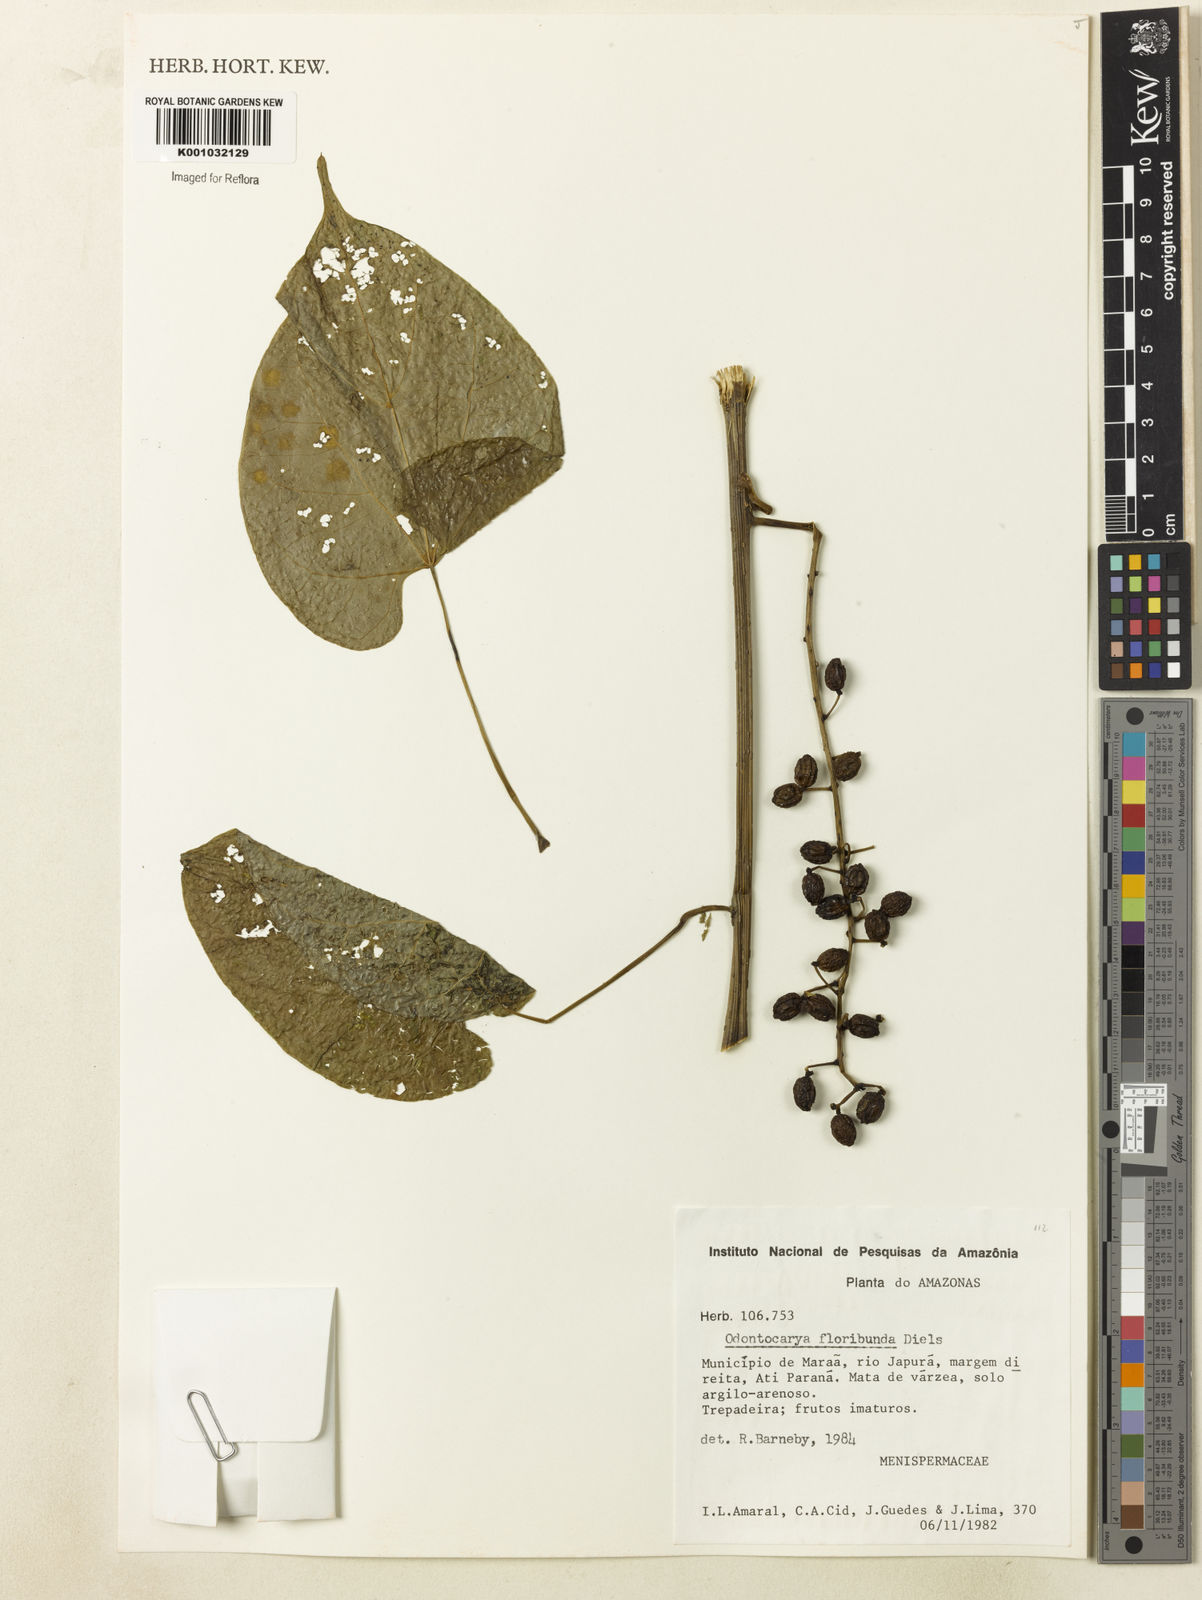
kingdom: Plantae
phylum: Tracheophyta
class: Magnoliopsida
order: Ranunculales
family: Menispermaceae
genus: Odontocarya
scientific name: Odontocarya floribunda
